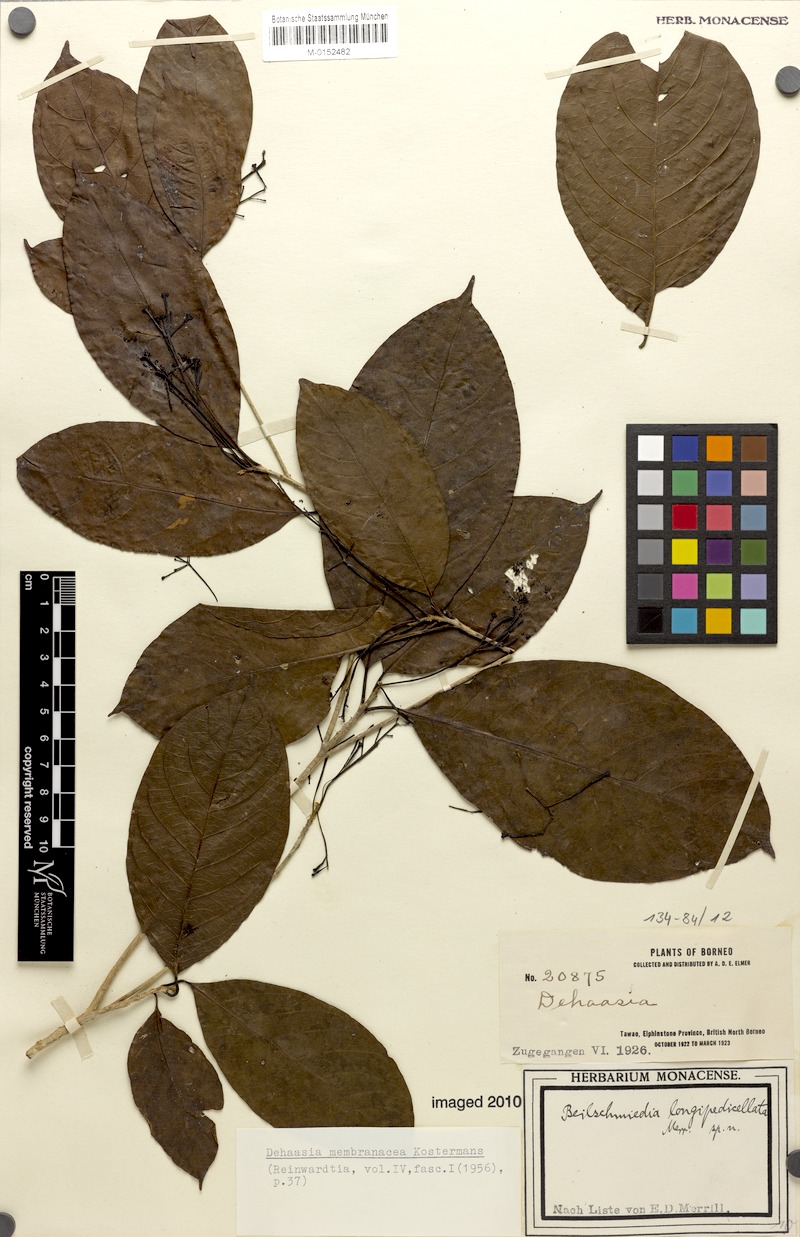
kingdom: Plantae
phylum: Tracheophyta
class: Magnoliopsida
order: Laurales
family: Lauraceae
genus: Dehaasia
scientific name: Dehaasia membranacea
